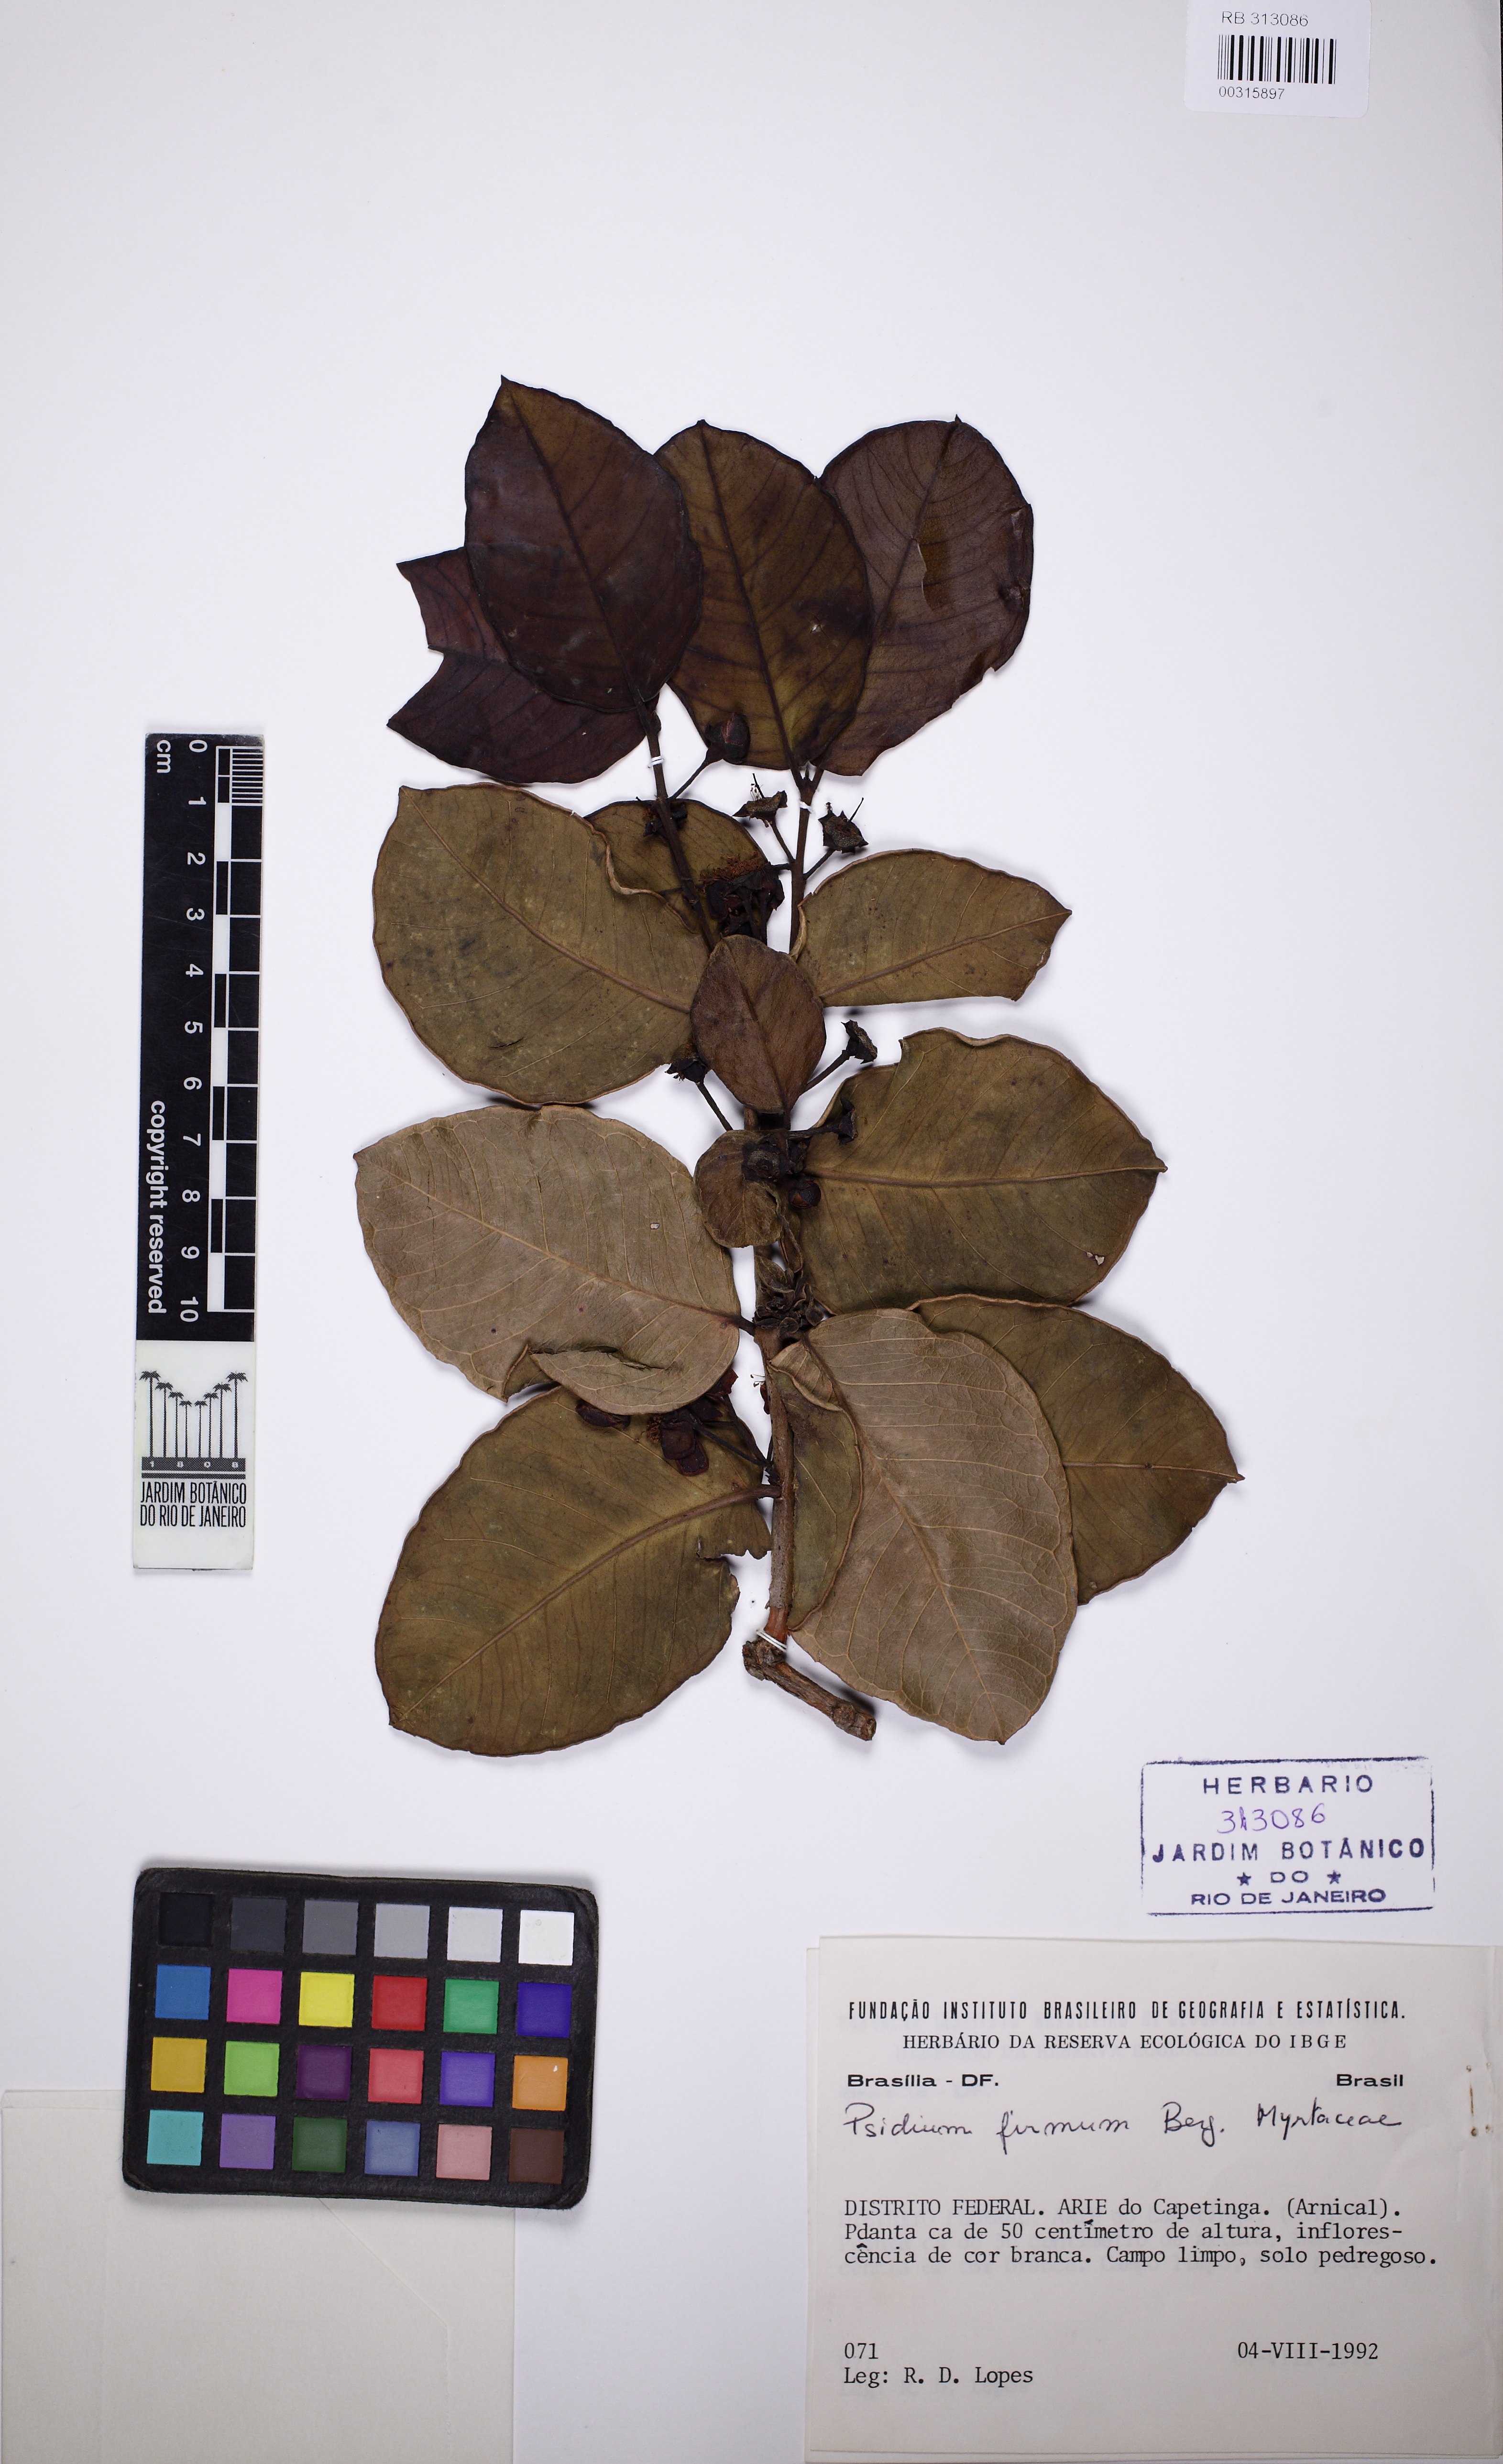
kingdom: Plantae
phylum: Tracheophyta
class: Magnoliopsida
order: Myrtales
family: Myrtaceae
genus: Psidium
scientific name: Psidium firmum
